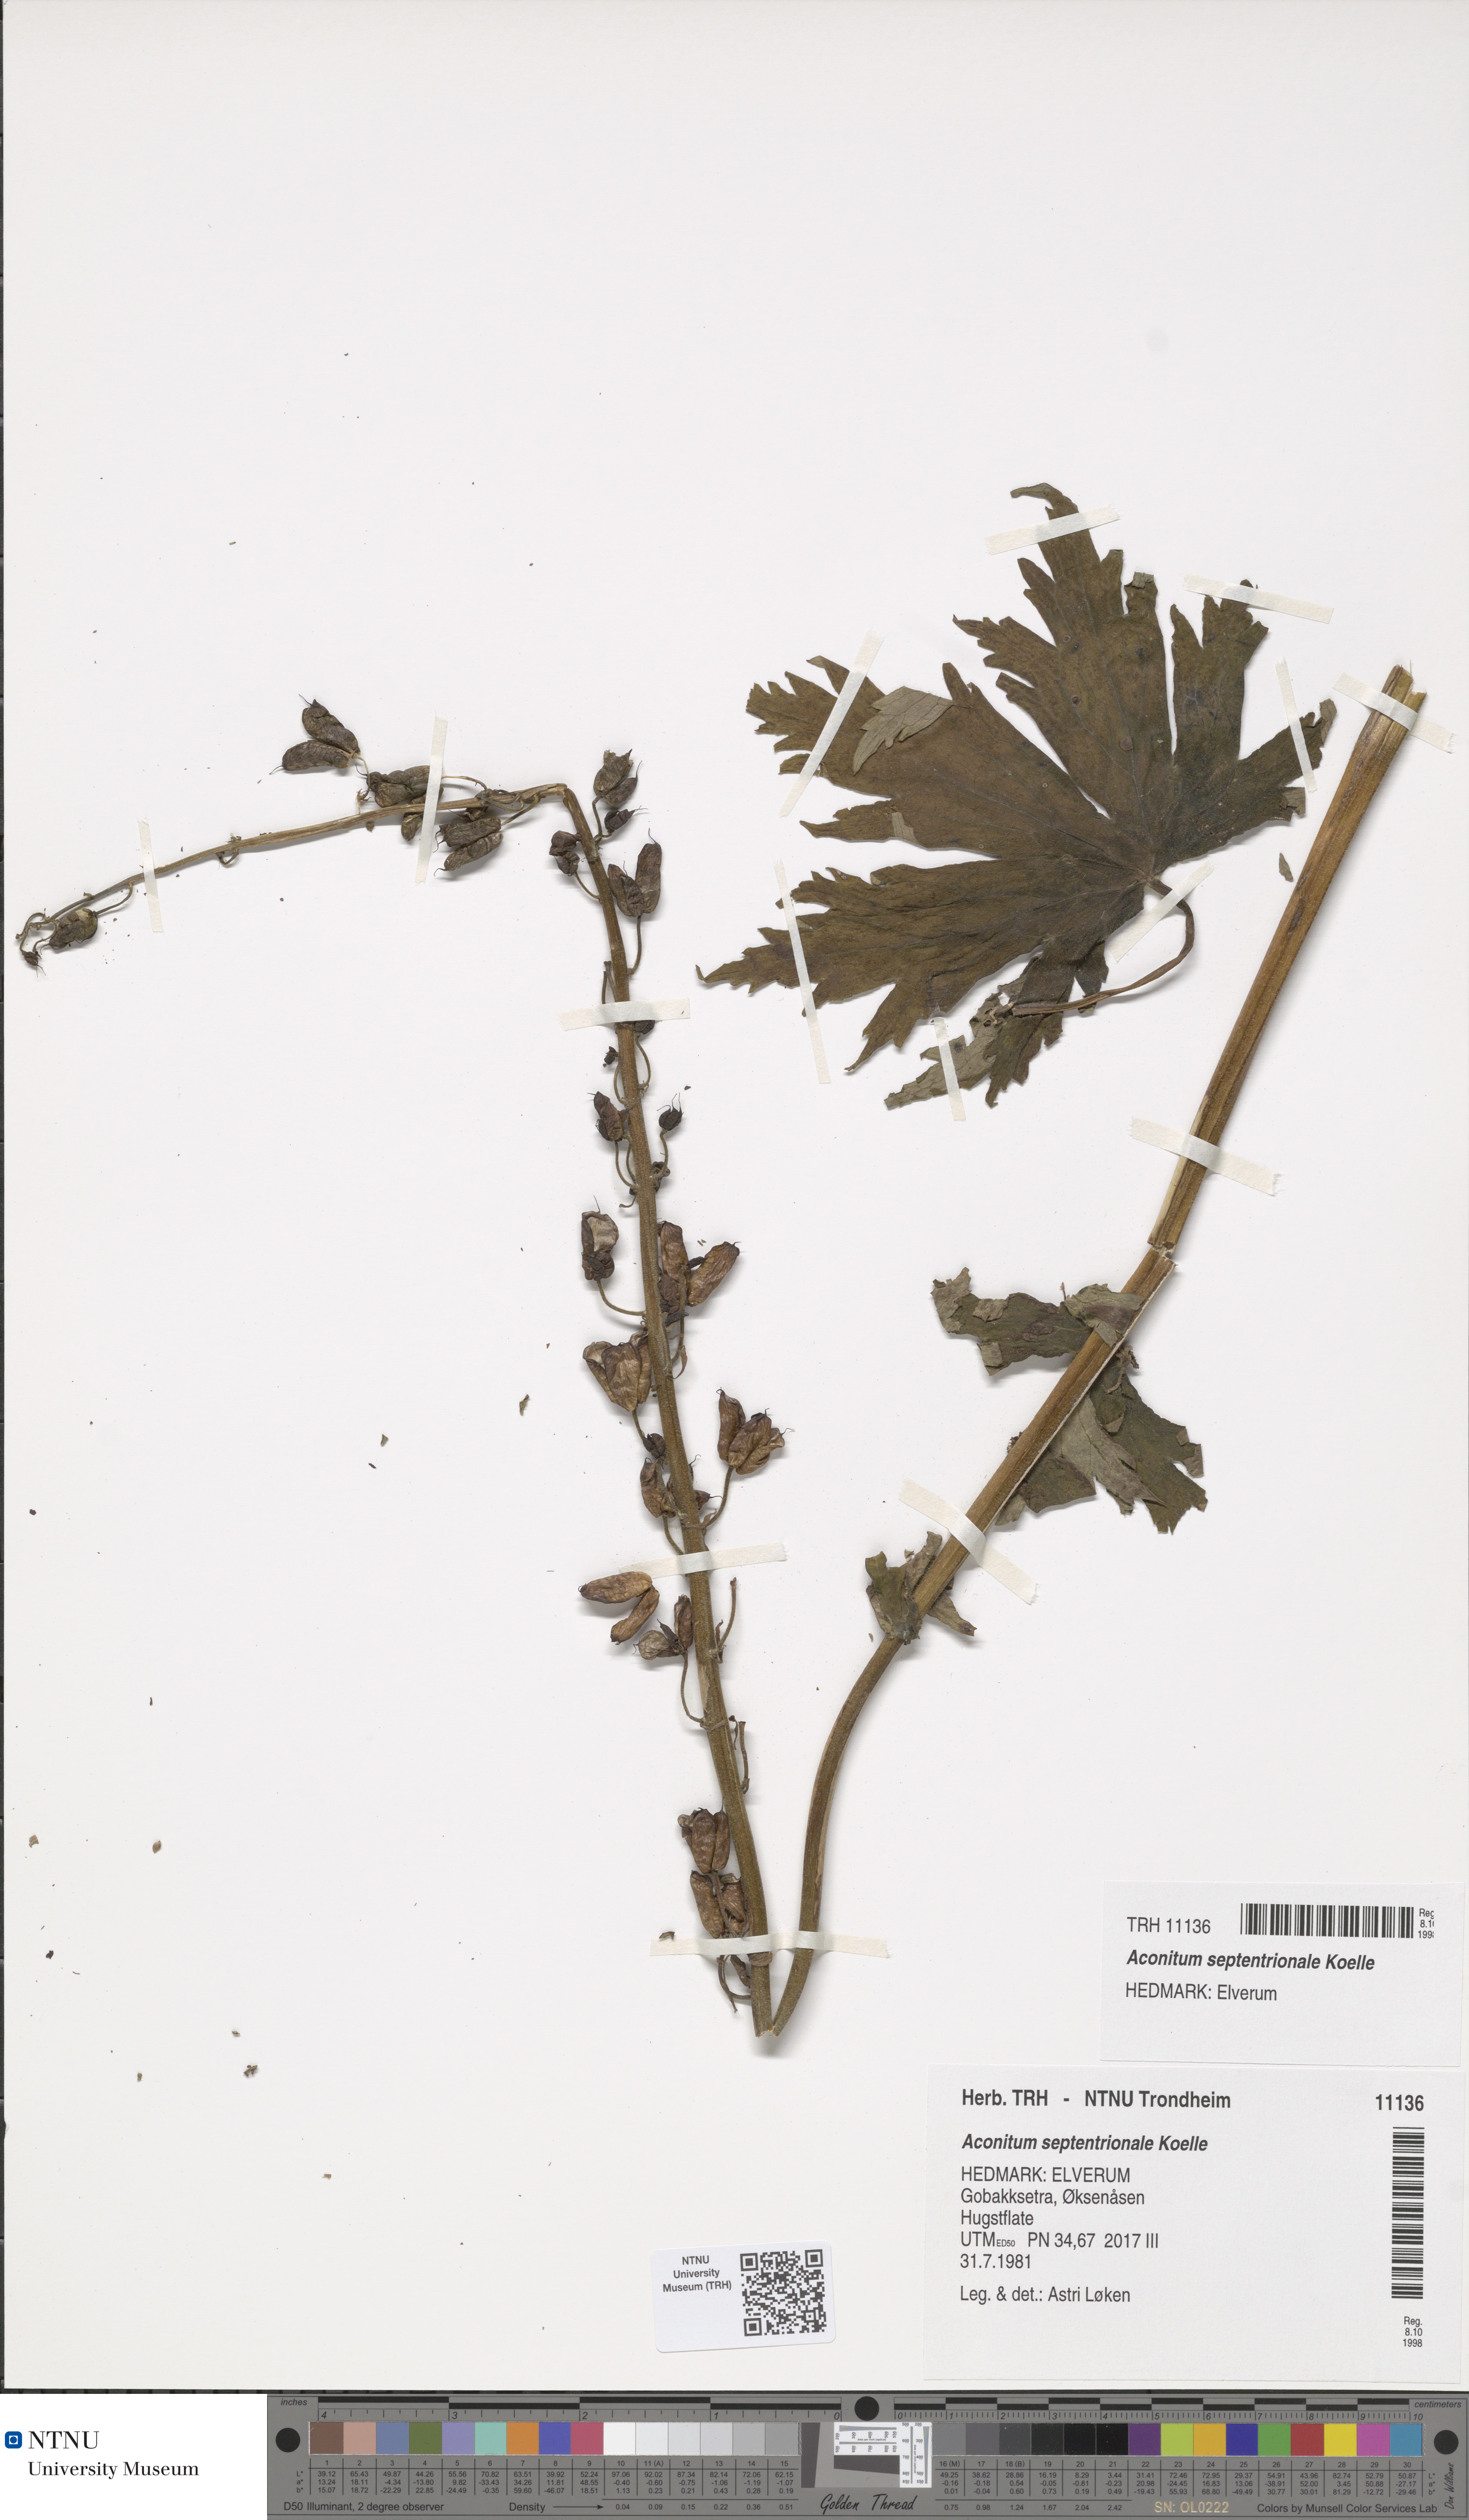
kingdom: Plantae
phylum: Tracheophyta
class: Magnoliopsida
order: Ranunculales
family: Ranunculaceae
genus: Aconitum
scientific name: Aconitum septentrionale
